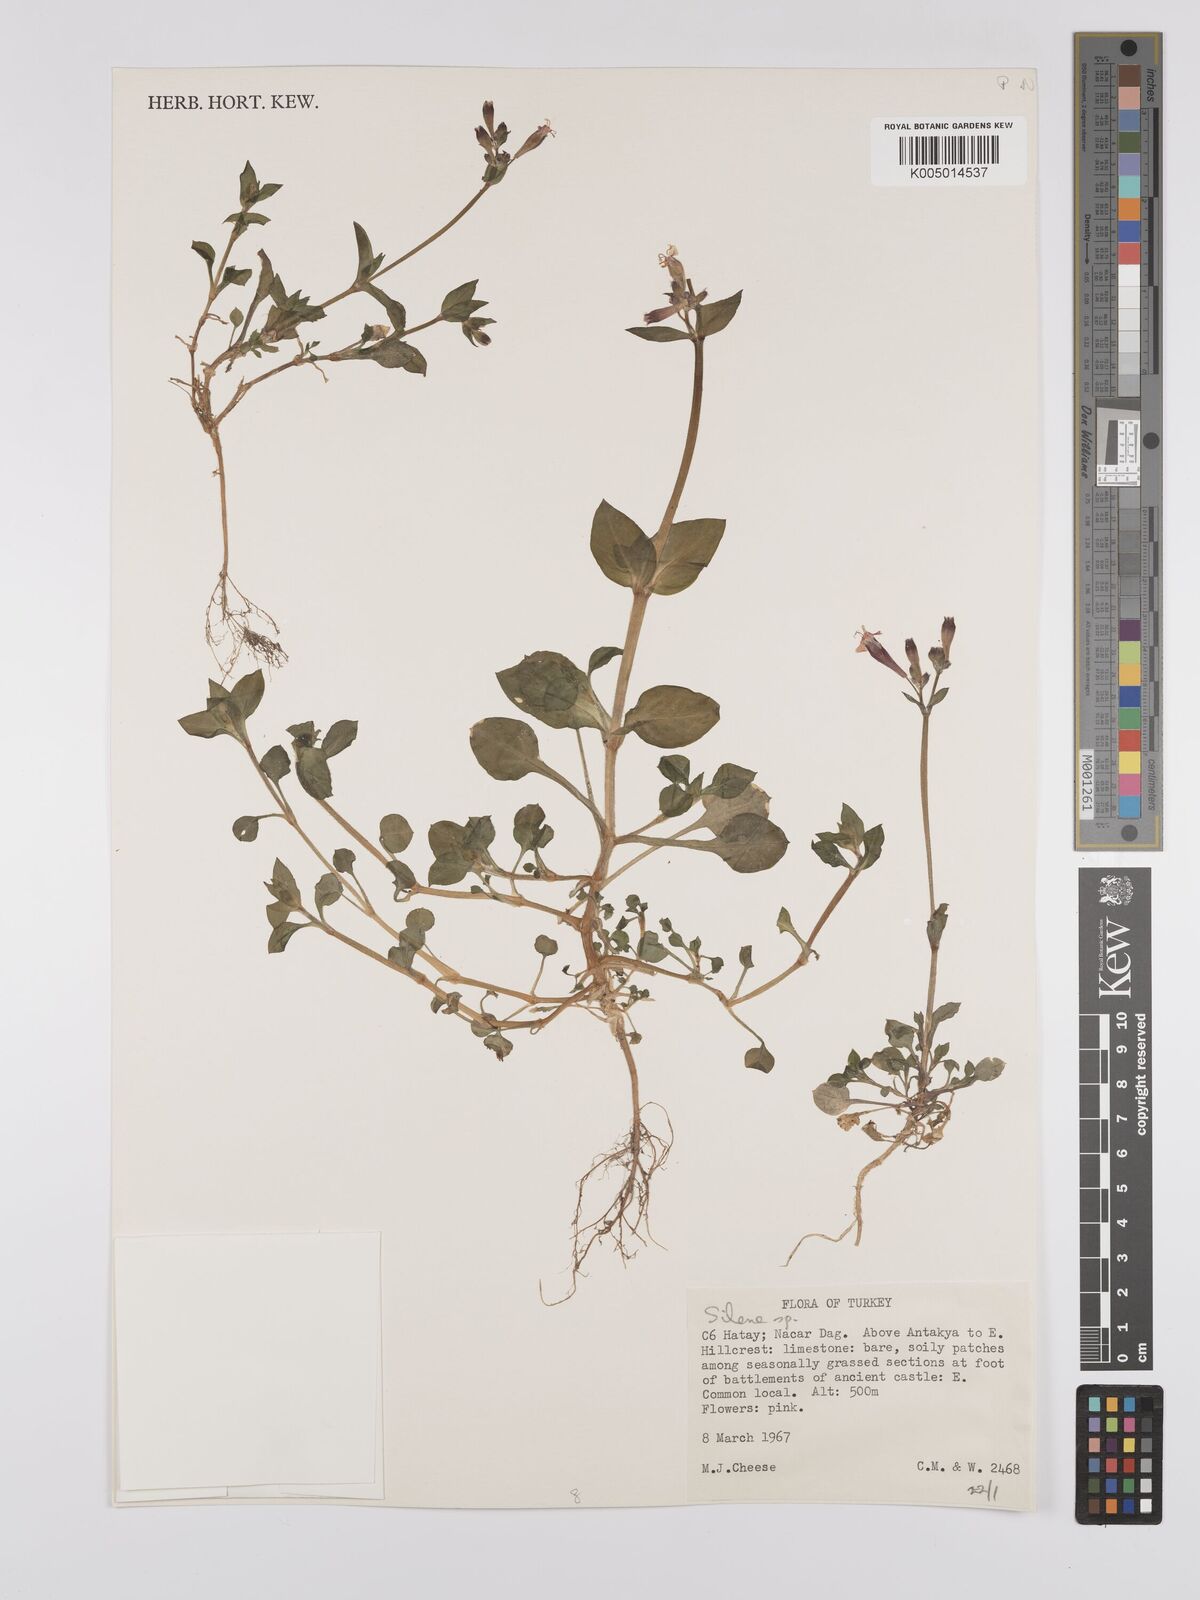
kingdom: Plantae
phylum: Tracheophyta
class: Magnoliopsida
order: Caryophyllales
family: Caryophyllaceae
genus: Silene
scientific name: Silene
